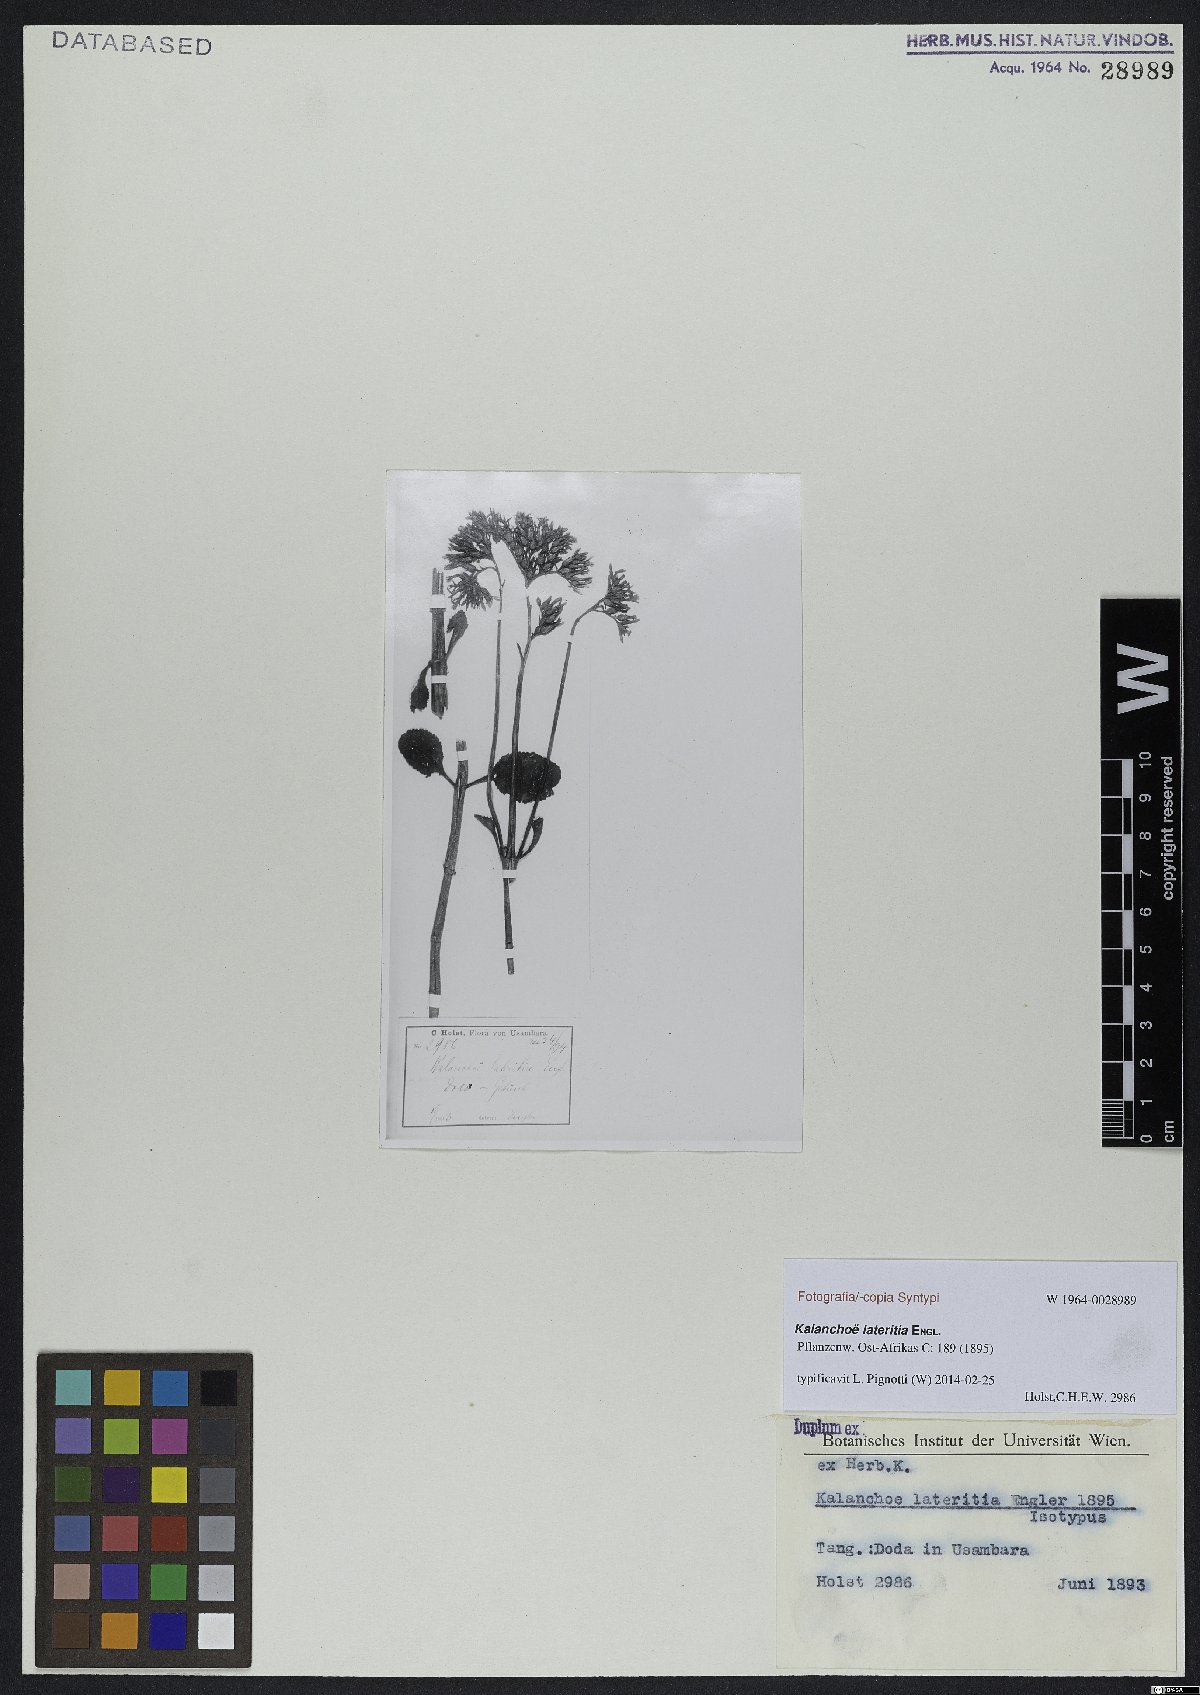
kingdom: Plantae
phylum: Tracheophyta
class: Magnoliopsida
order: Saxifragales
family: Crassulaceae
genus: Kalanchoe
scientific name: Kalanchoe lateritia
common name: Kalanchoe
